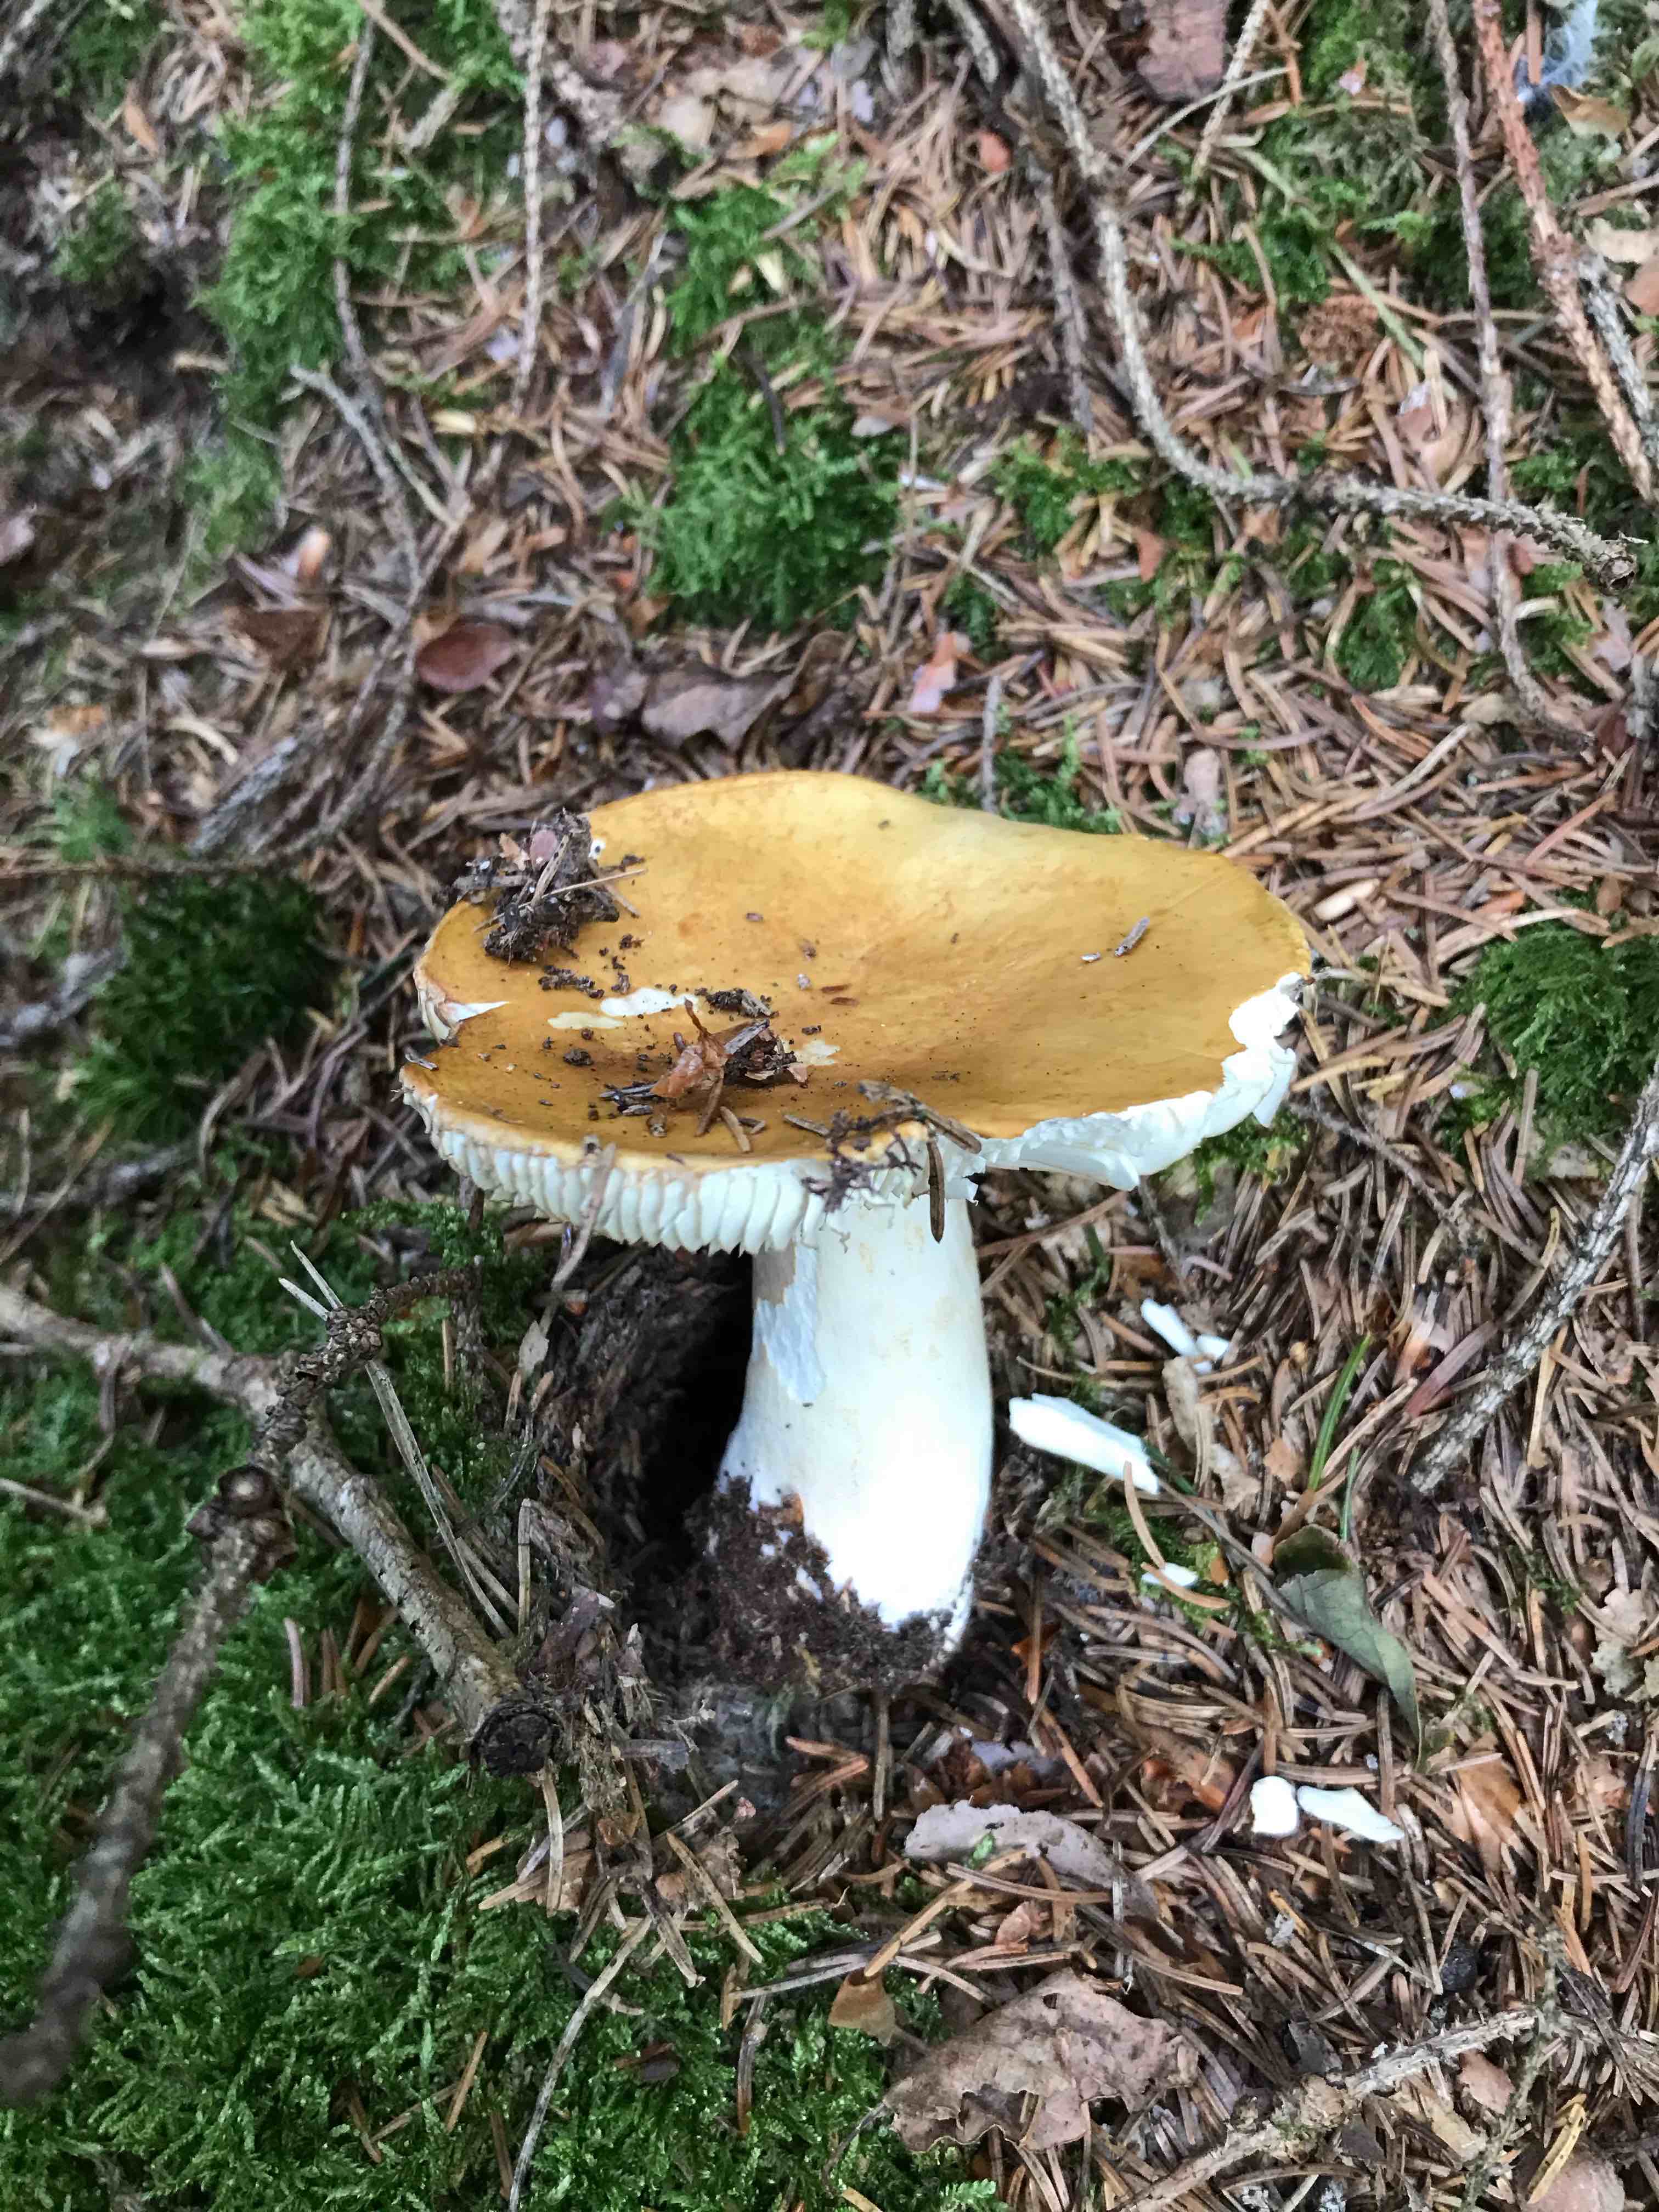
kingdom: Fungi
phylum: Basidiomycota
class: Agaricomycetes
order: Russulales
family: Russulaceae
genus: Russula
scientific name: Russula ochroleuca
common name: okkergul skørhat
